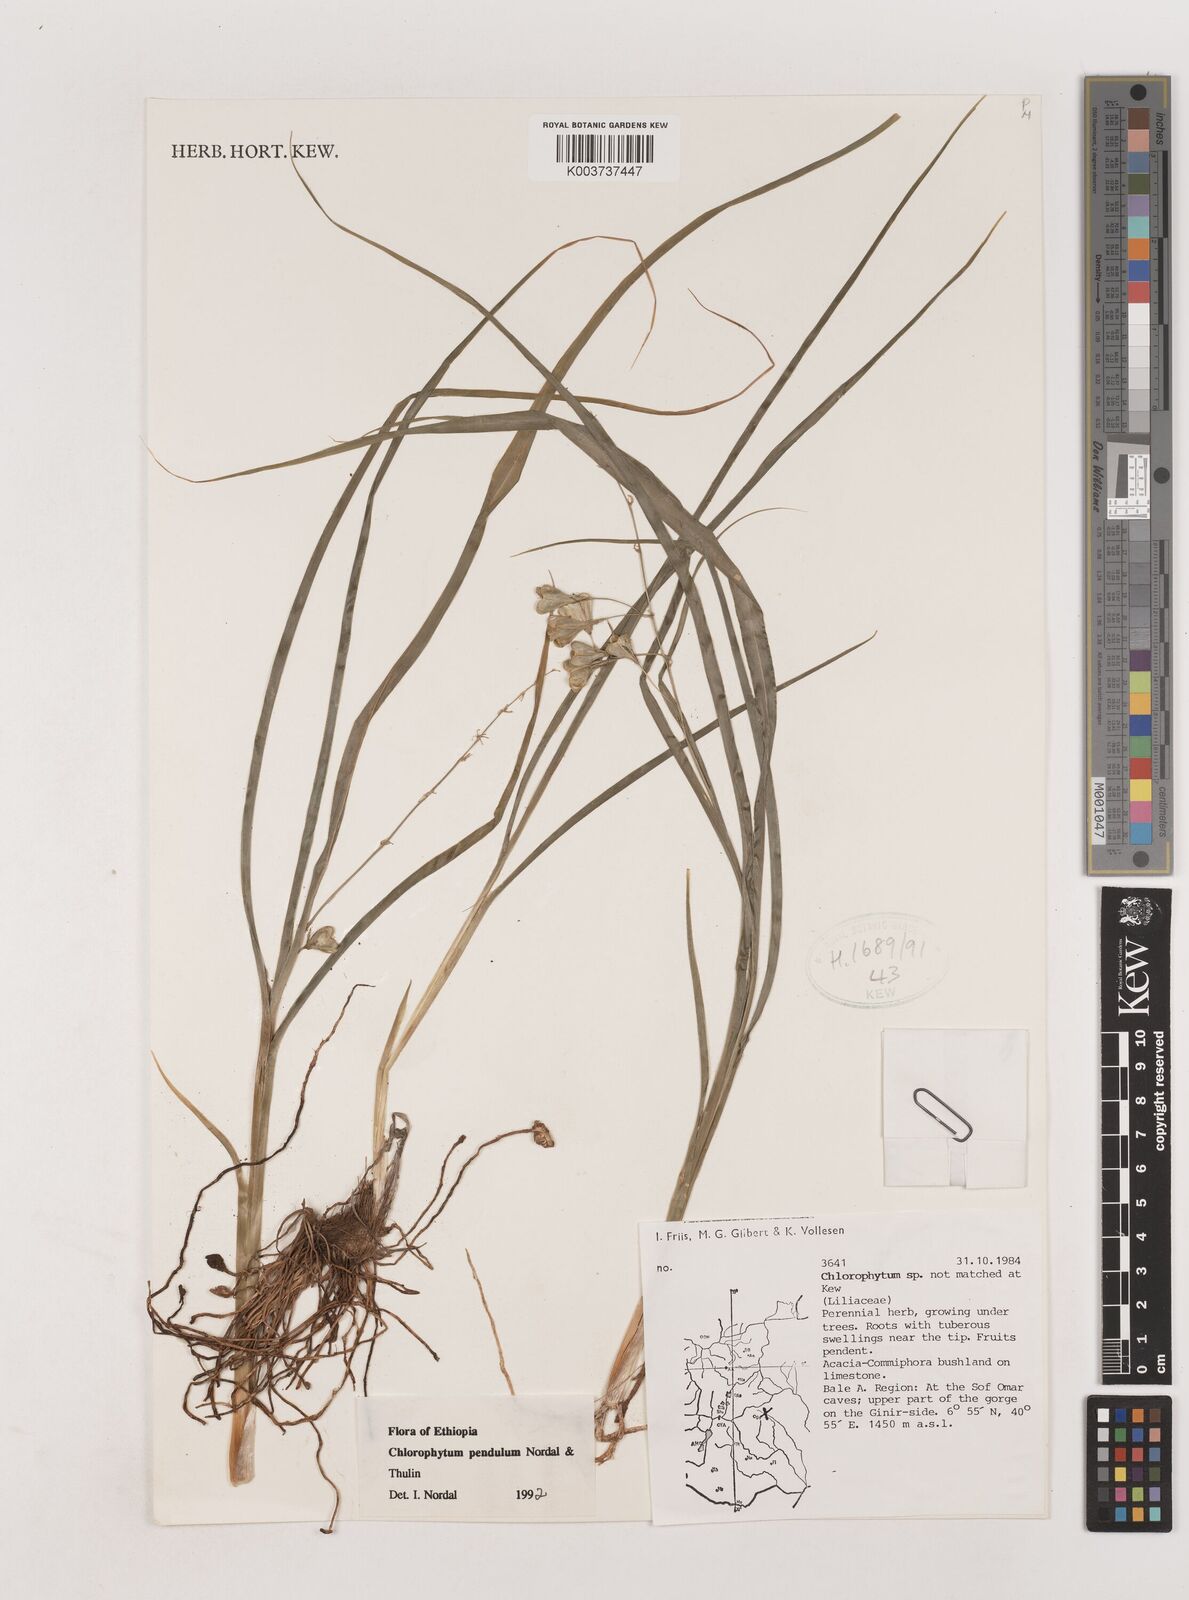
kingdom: Plantae
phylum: Tracheophyta
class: Liliopsida
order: Asparagales
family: Asparagaceae
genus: Chlorophytum
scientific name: Chlorophytum pendulum
